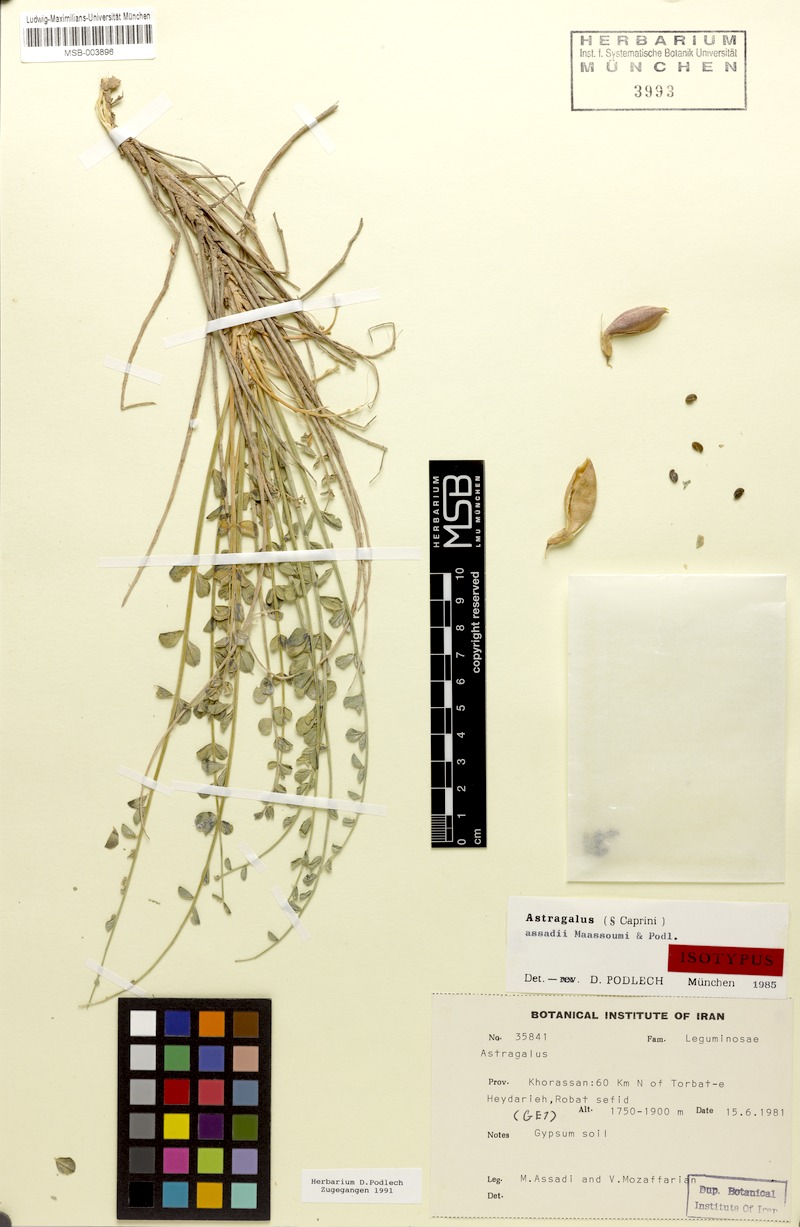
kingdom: Plantae
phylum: Tracheophyta
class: Magnoliopsida
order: Fabales
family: Fabaceae
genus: Astragalus
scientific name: Astragalus assadii
